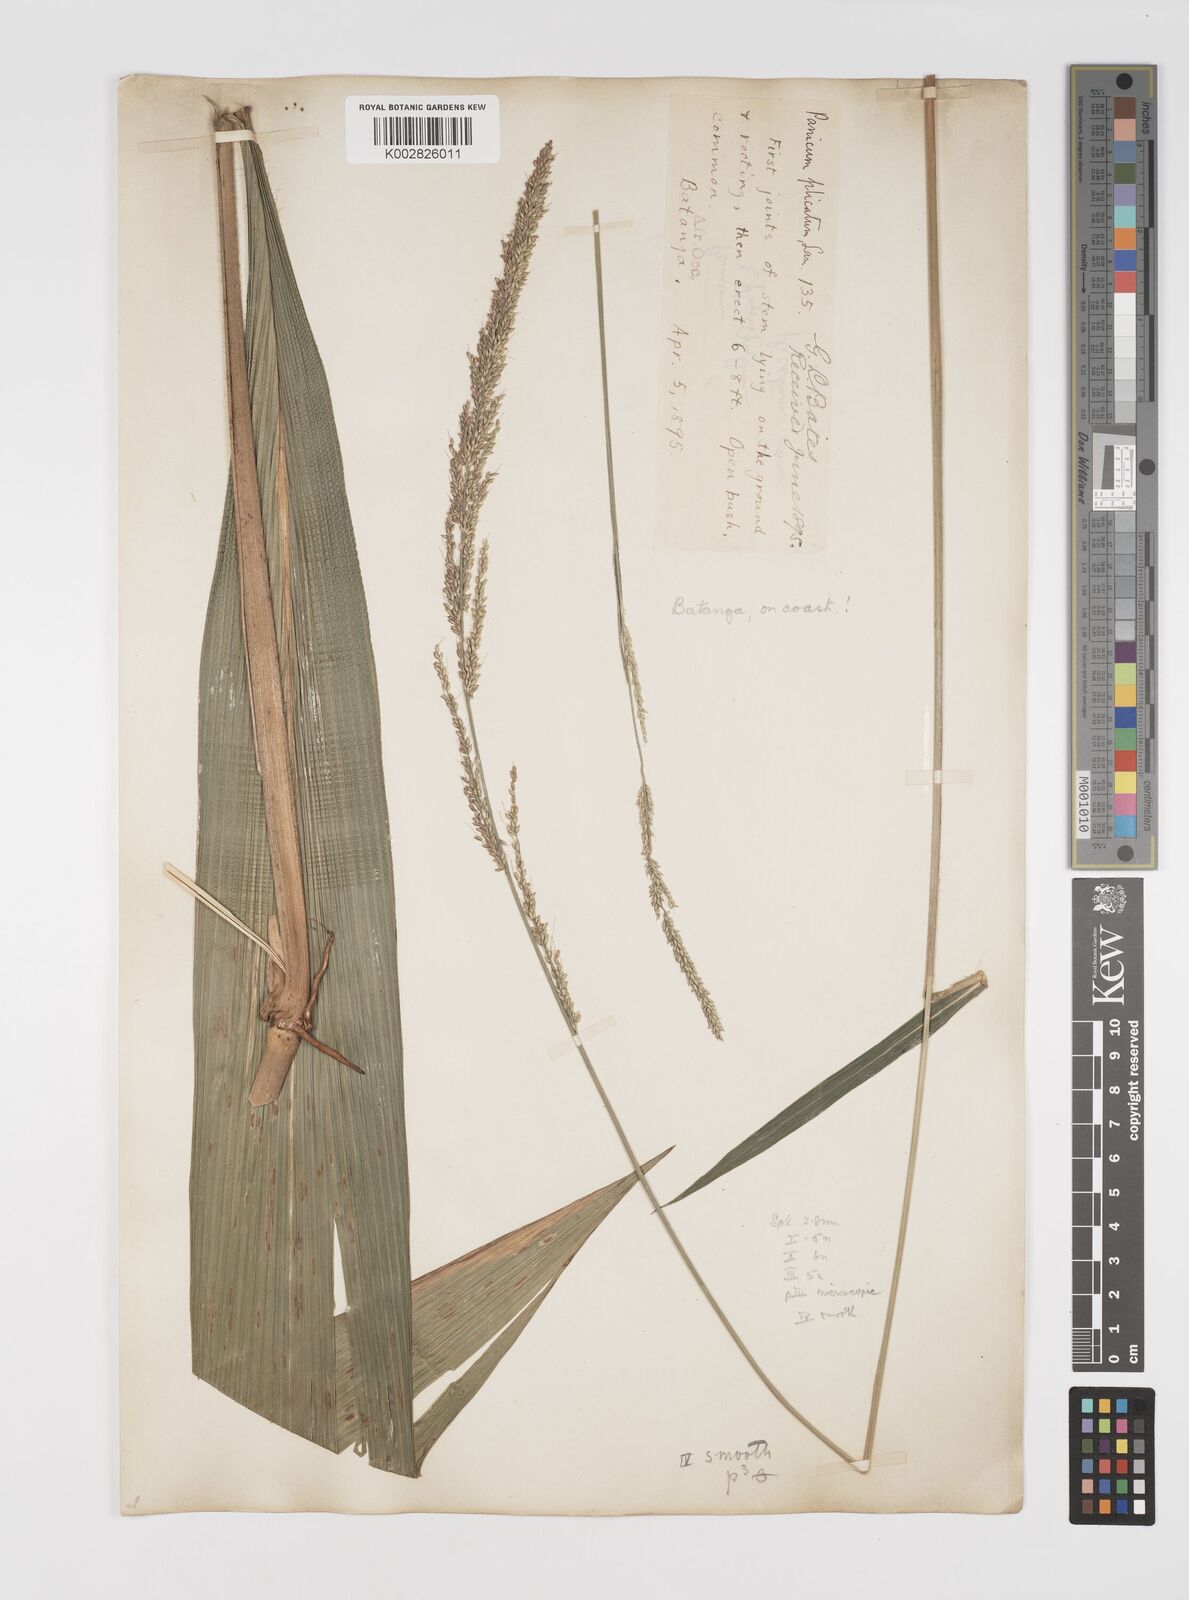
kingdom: Plantae
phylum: Tracheophyta
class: Liliopsida
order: Poales
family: Poaceae
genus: Setaria
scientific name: Setaria megaphylla
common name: Bigleaf bristlegrass
